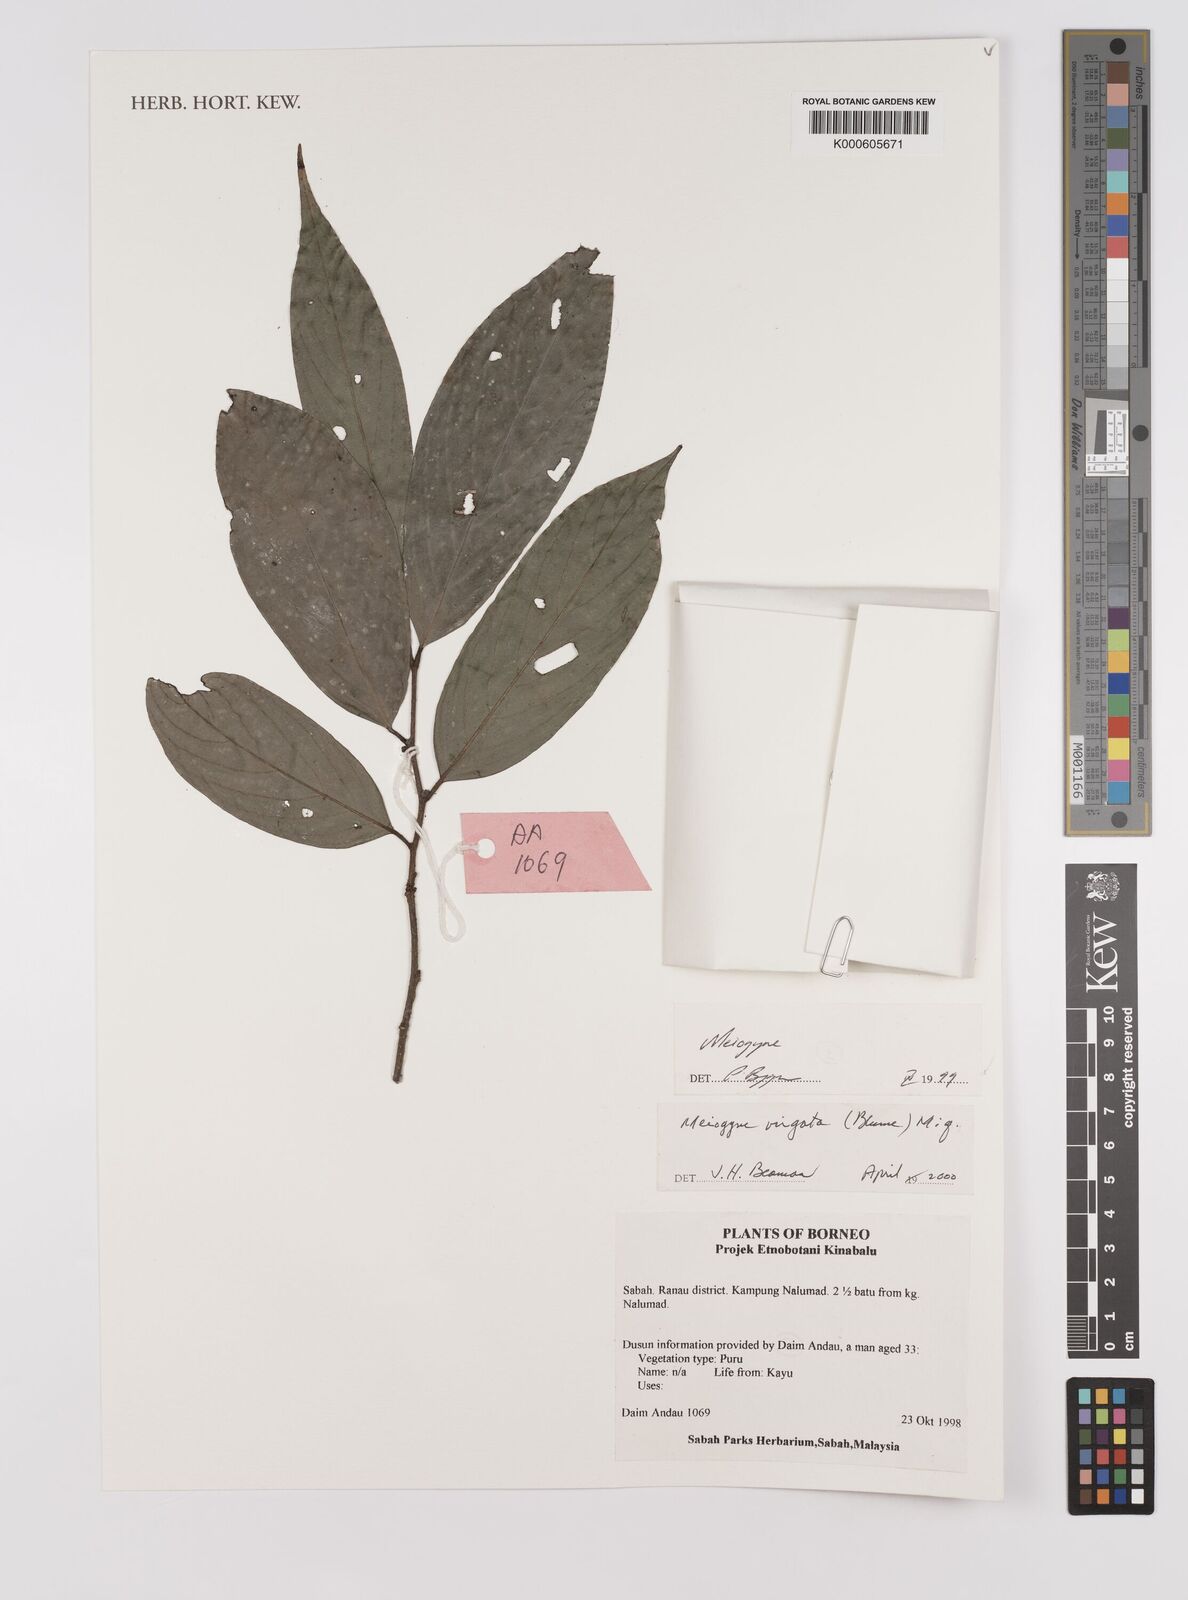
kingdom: Plantae
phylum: Tracheophyta
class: Magnoliopsida
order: Magnoliales
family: Annonaceae
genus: Meiogyne
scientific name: Meiogyne virgata
